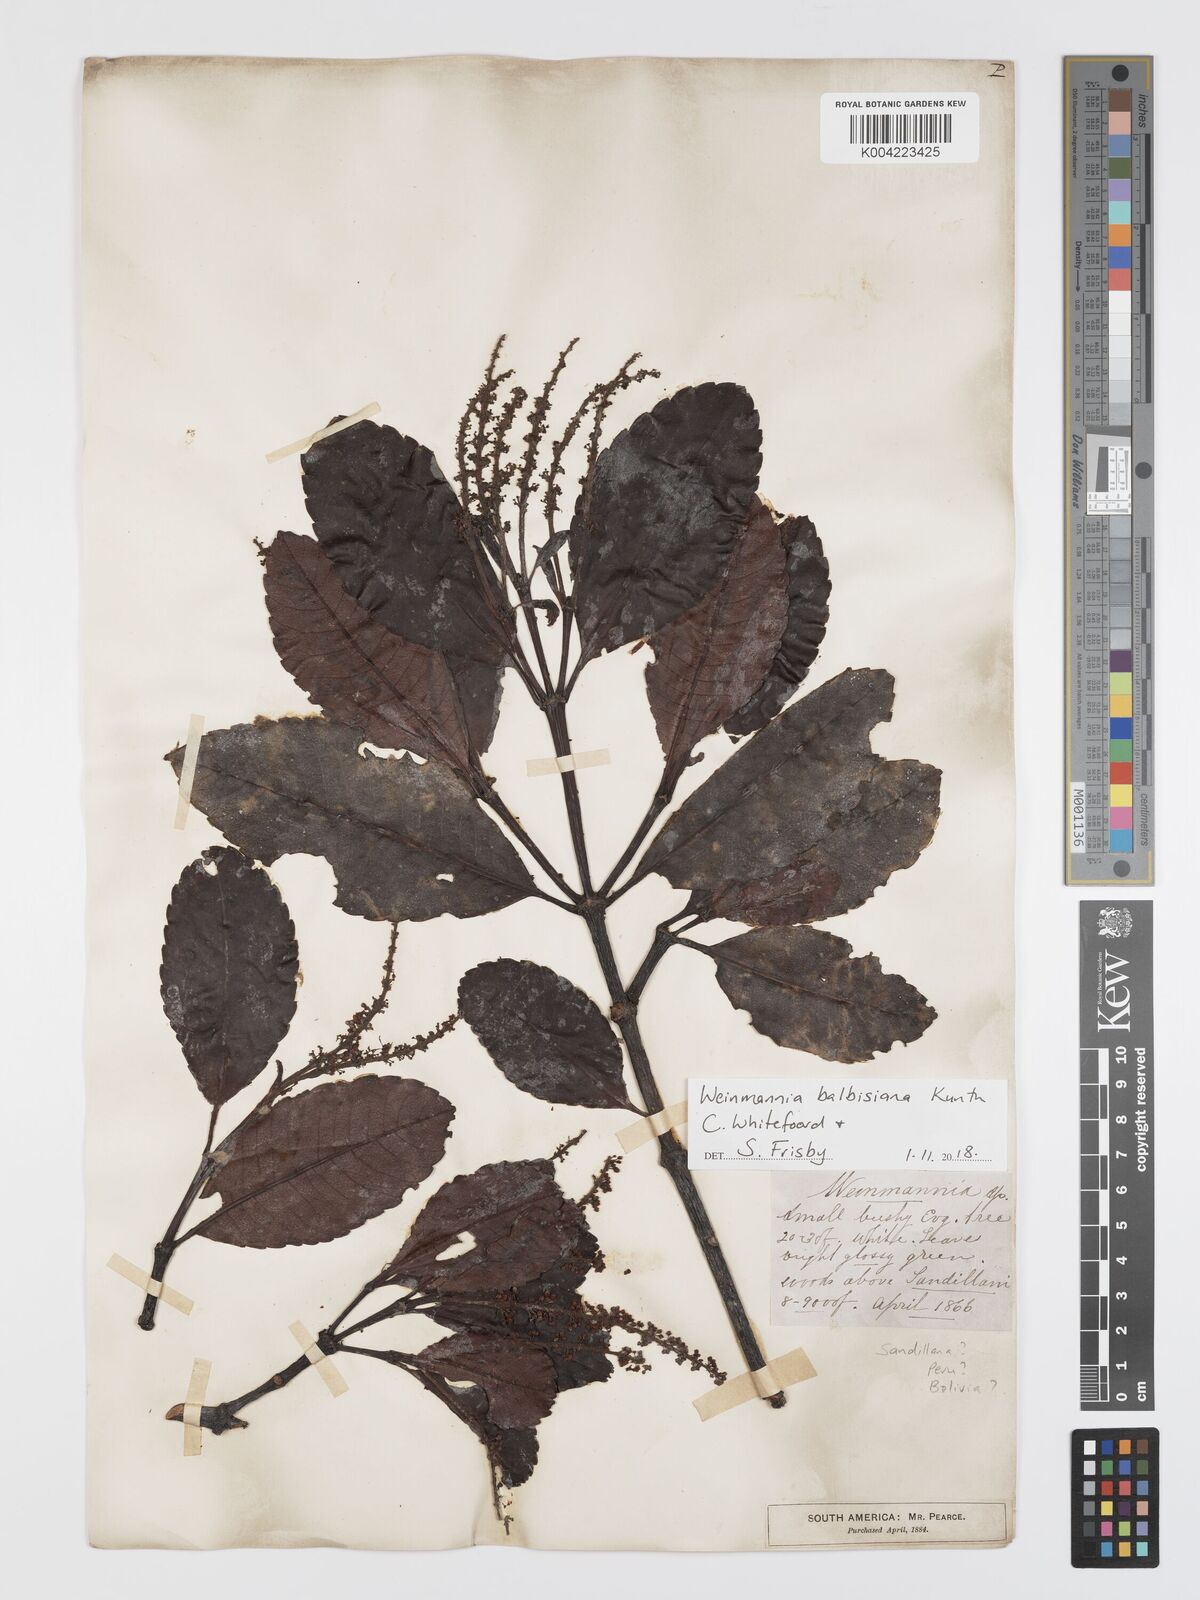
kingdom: Plantae
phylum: Tracheophyta
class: Magnoliopsida
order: Oxalidales
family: Cunoniaceae
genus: Weinmannia
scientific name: Weinmannia balbisana
